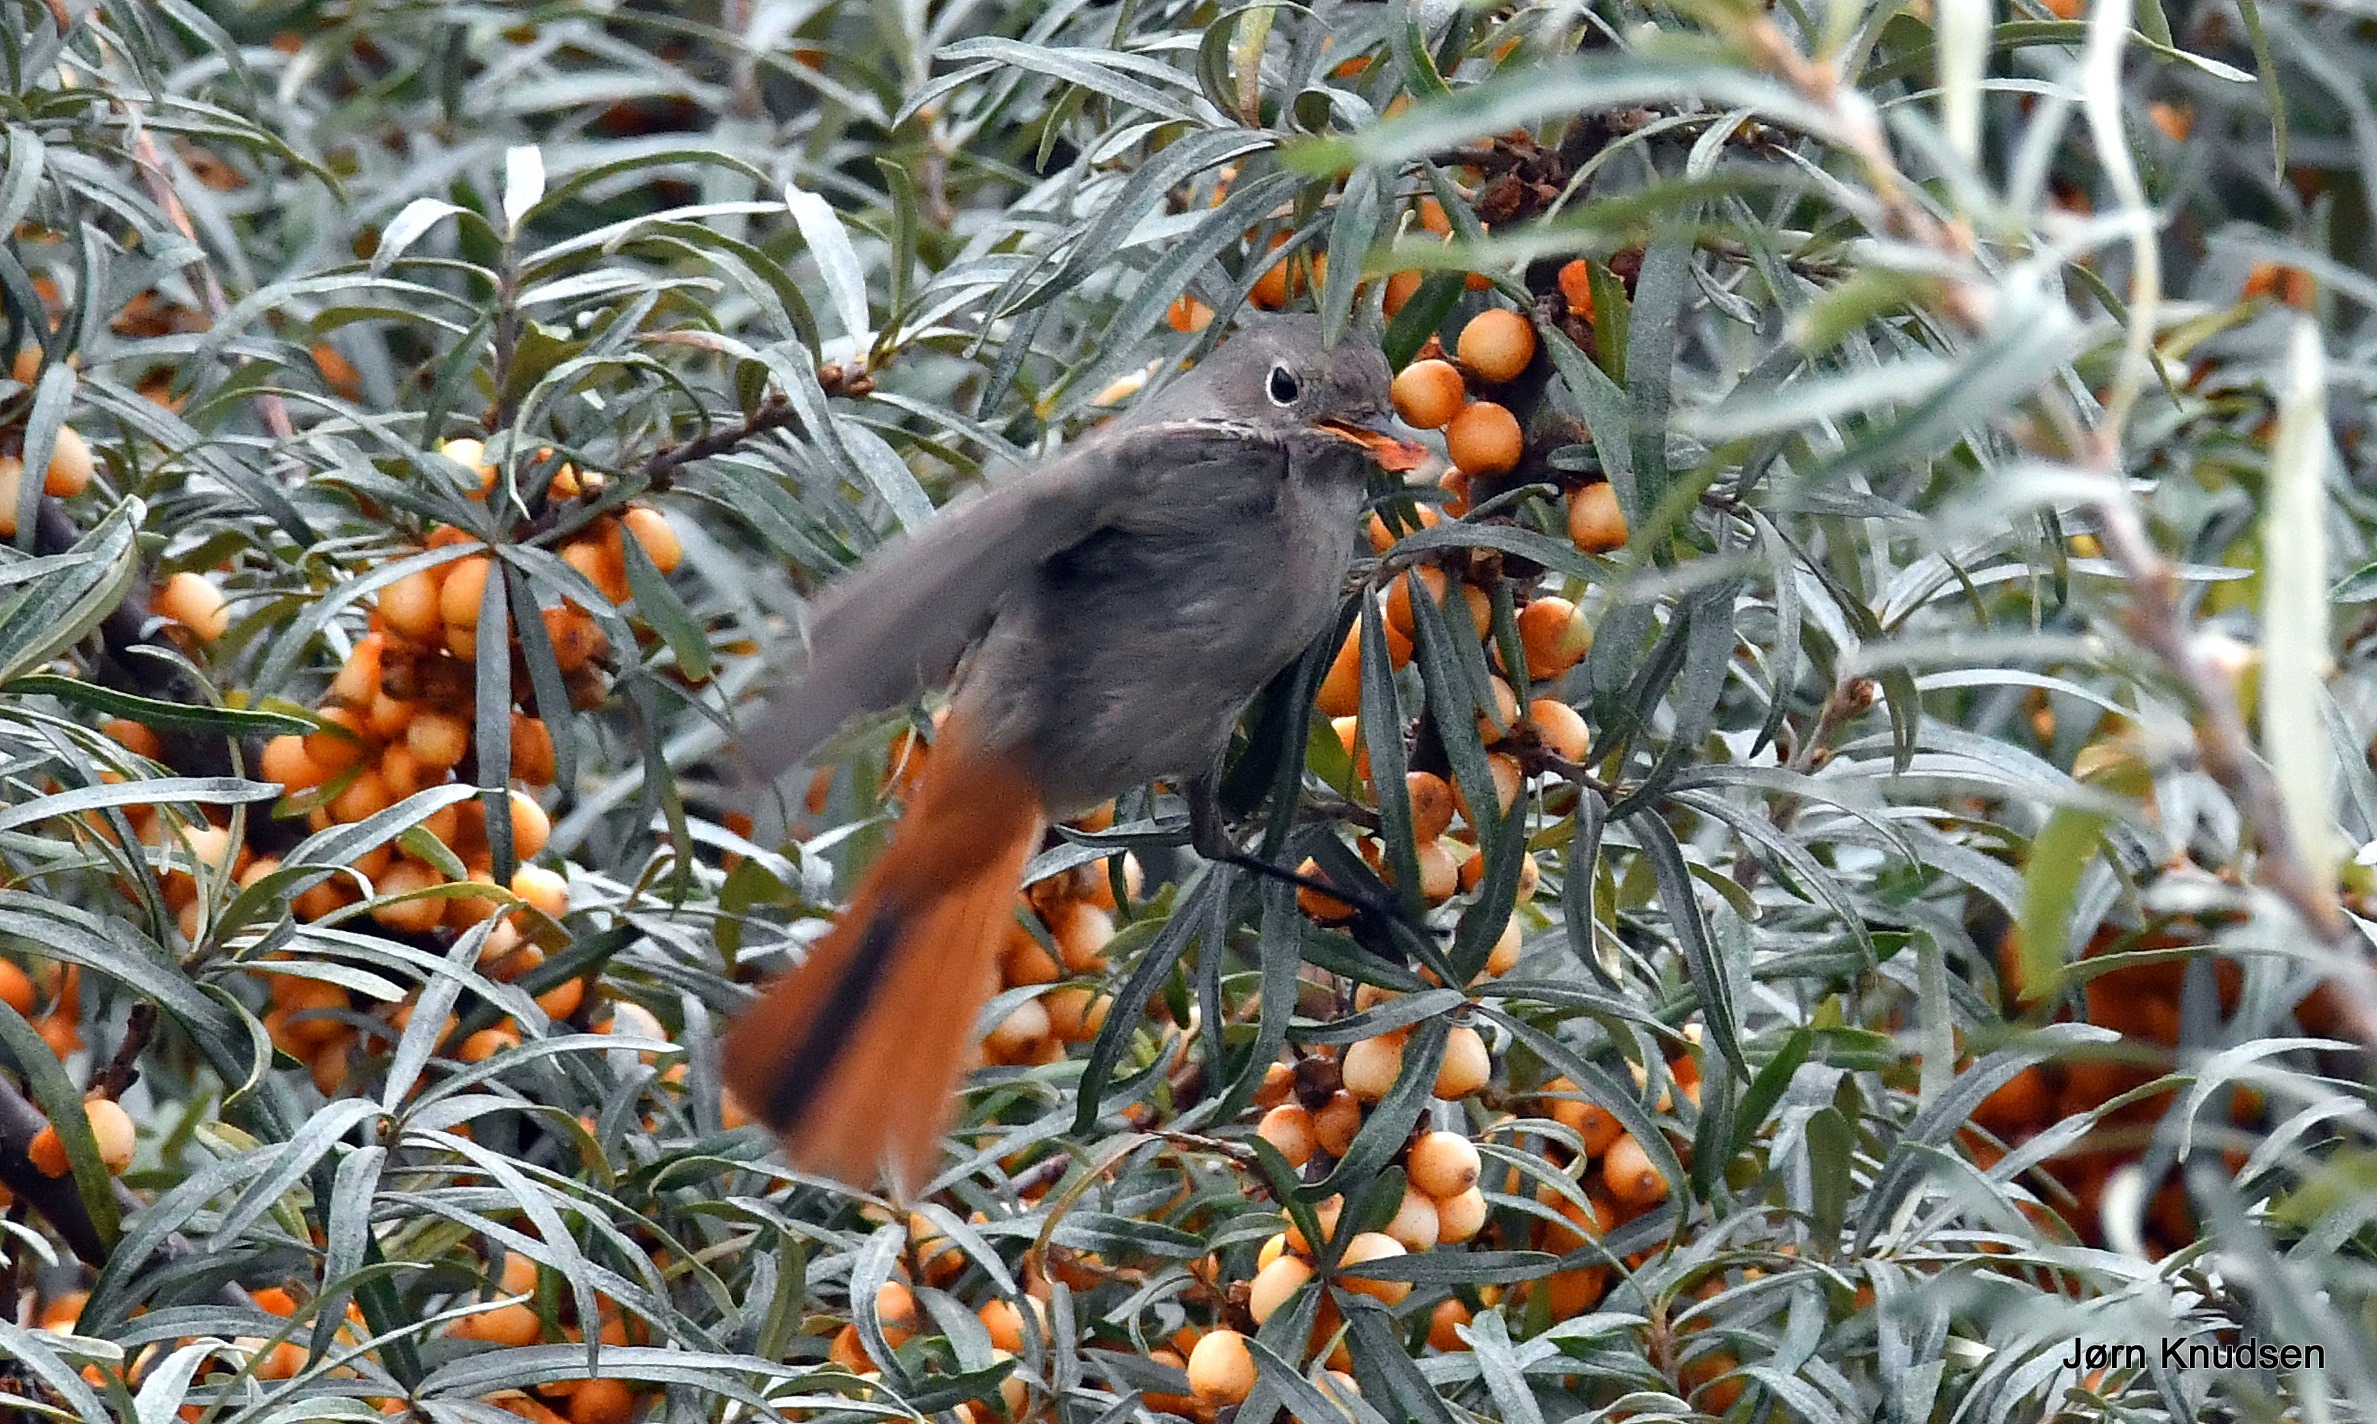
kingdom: Animalia
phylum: Chordata
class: Aves
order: Passeriformes
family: Muscicapidae
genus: Phoenicurus
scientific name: Phoenicurus ochruros
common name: Husrødstjert
